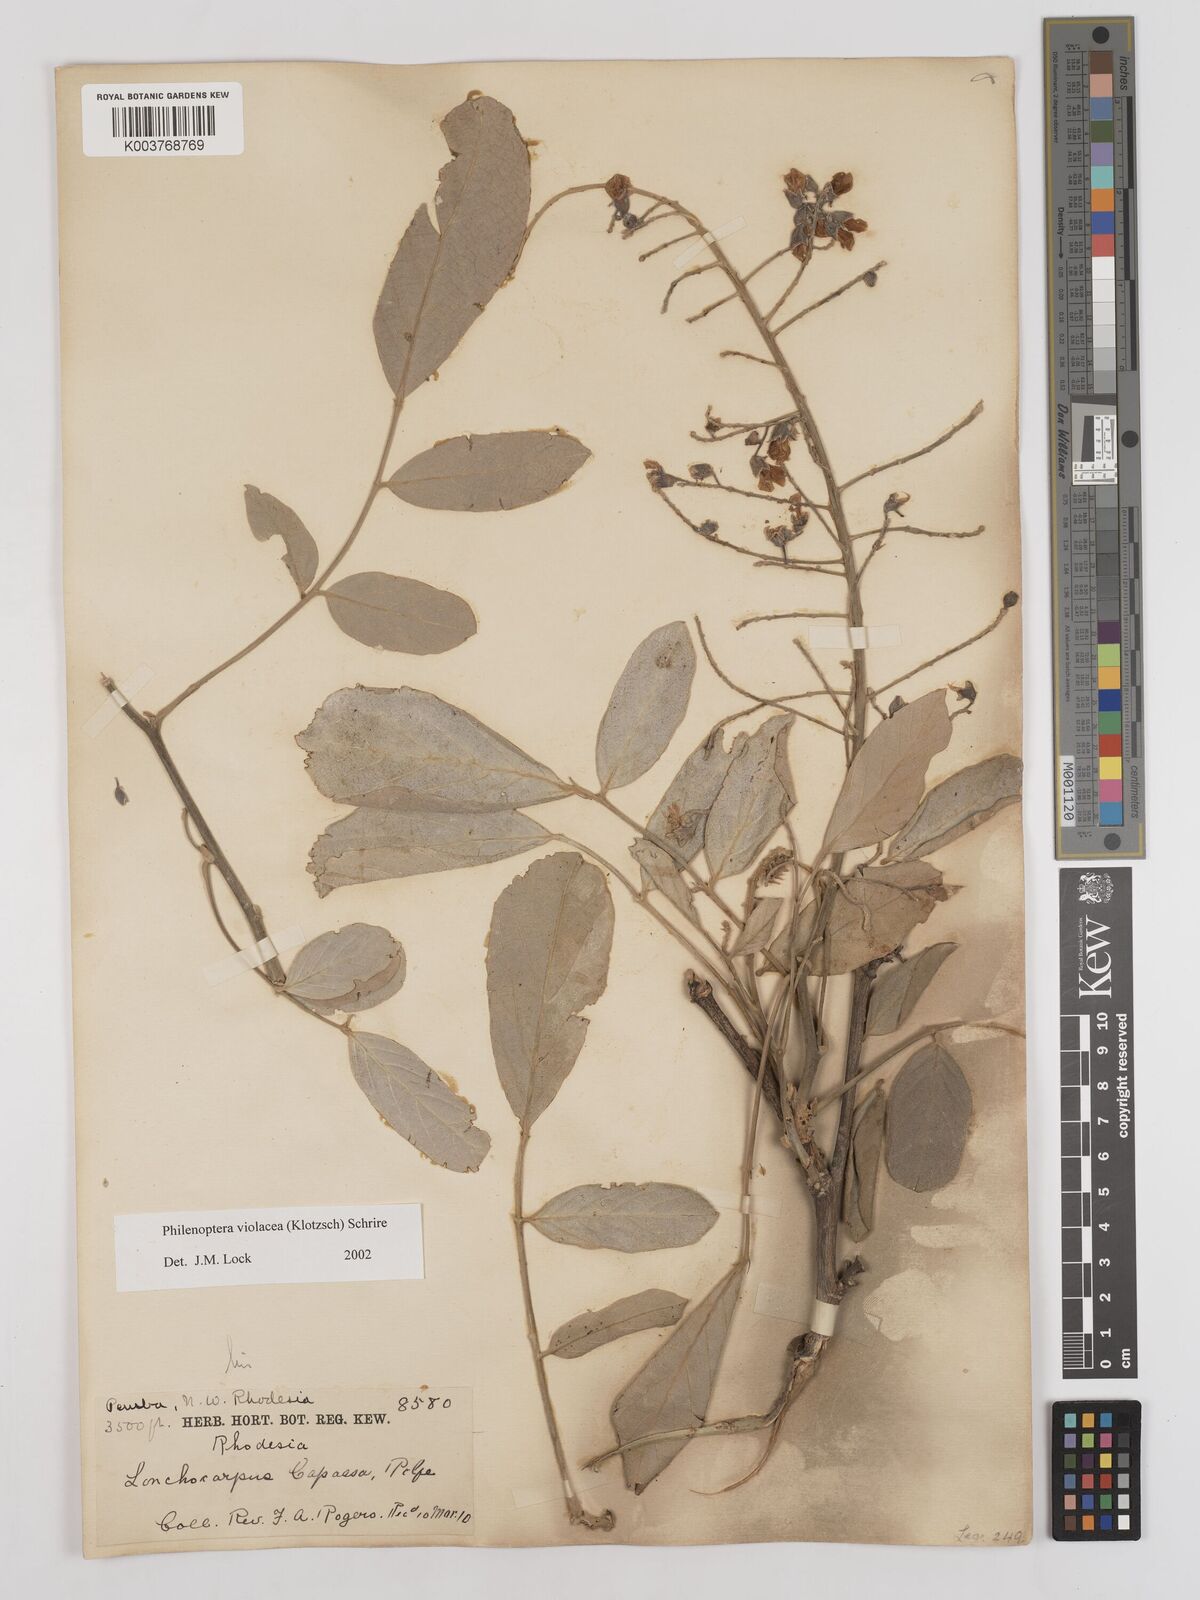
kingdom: Plantae
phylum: Tracheophyta
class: Magnoliopsida
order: Fabales
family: Fabaceae
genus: Philenoptera
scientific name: Philenoptera violacea
